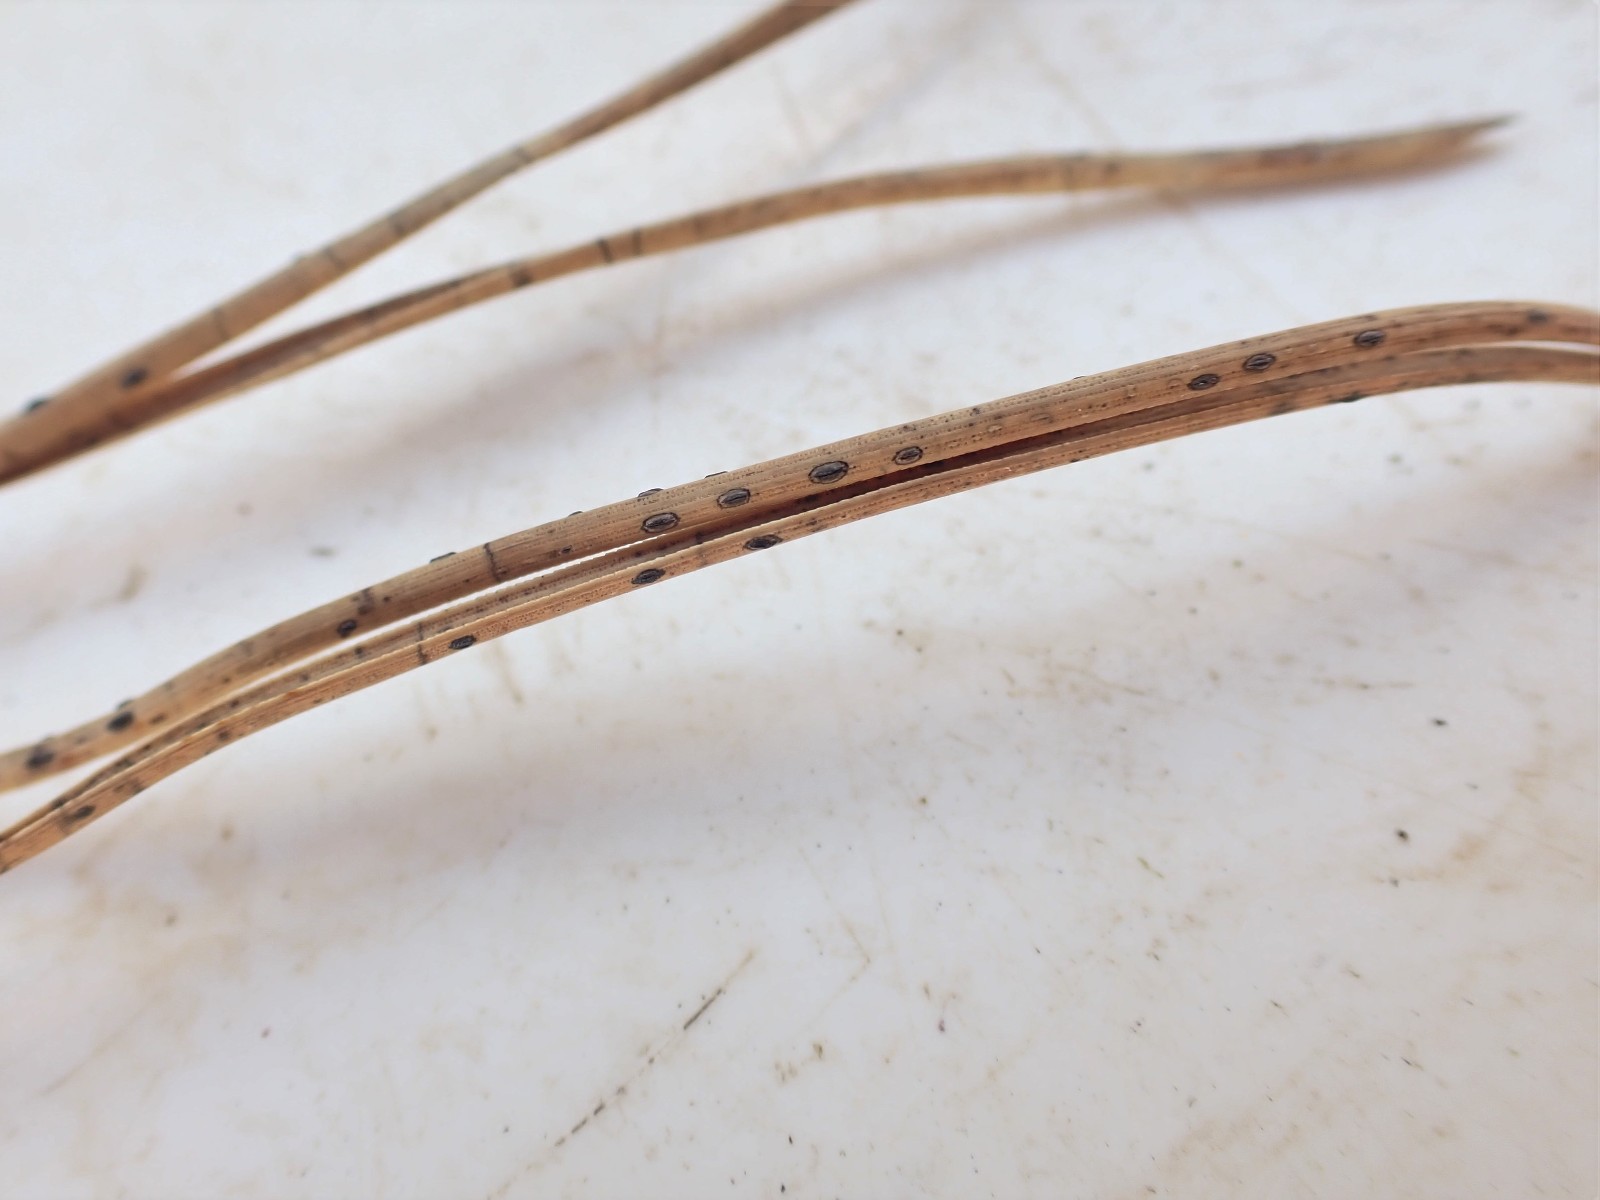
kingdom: Fungi
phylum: Ascomycota
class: Leotiomycetes
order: Rhytismatales
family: Rhytismataceae
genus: Lophodermium
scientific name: Lophodermium pinastri
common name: fyrre-fureplet
